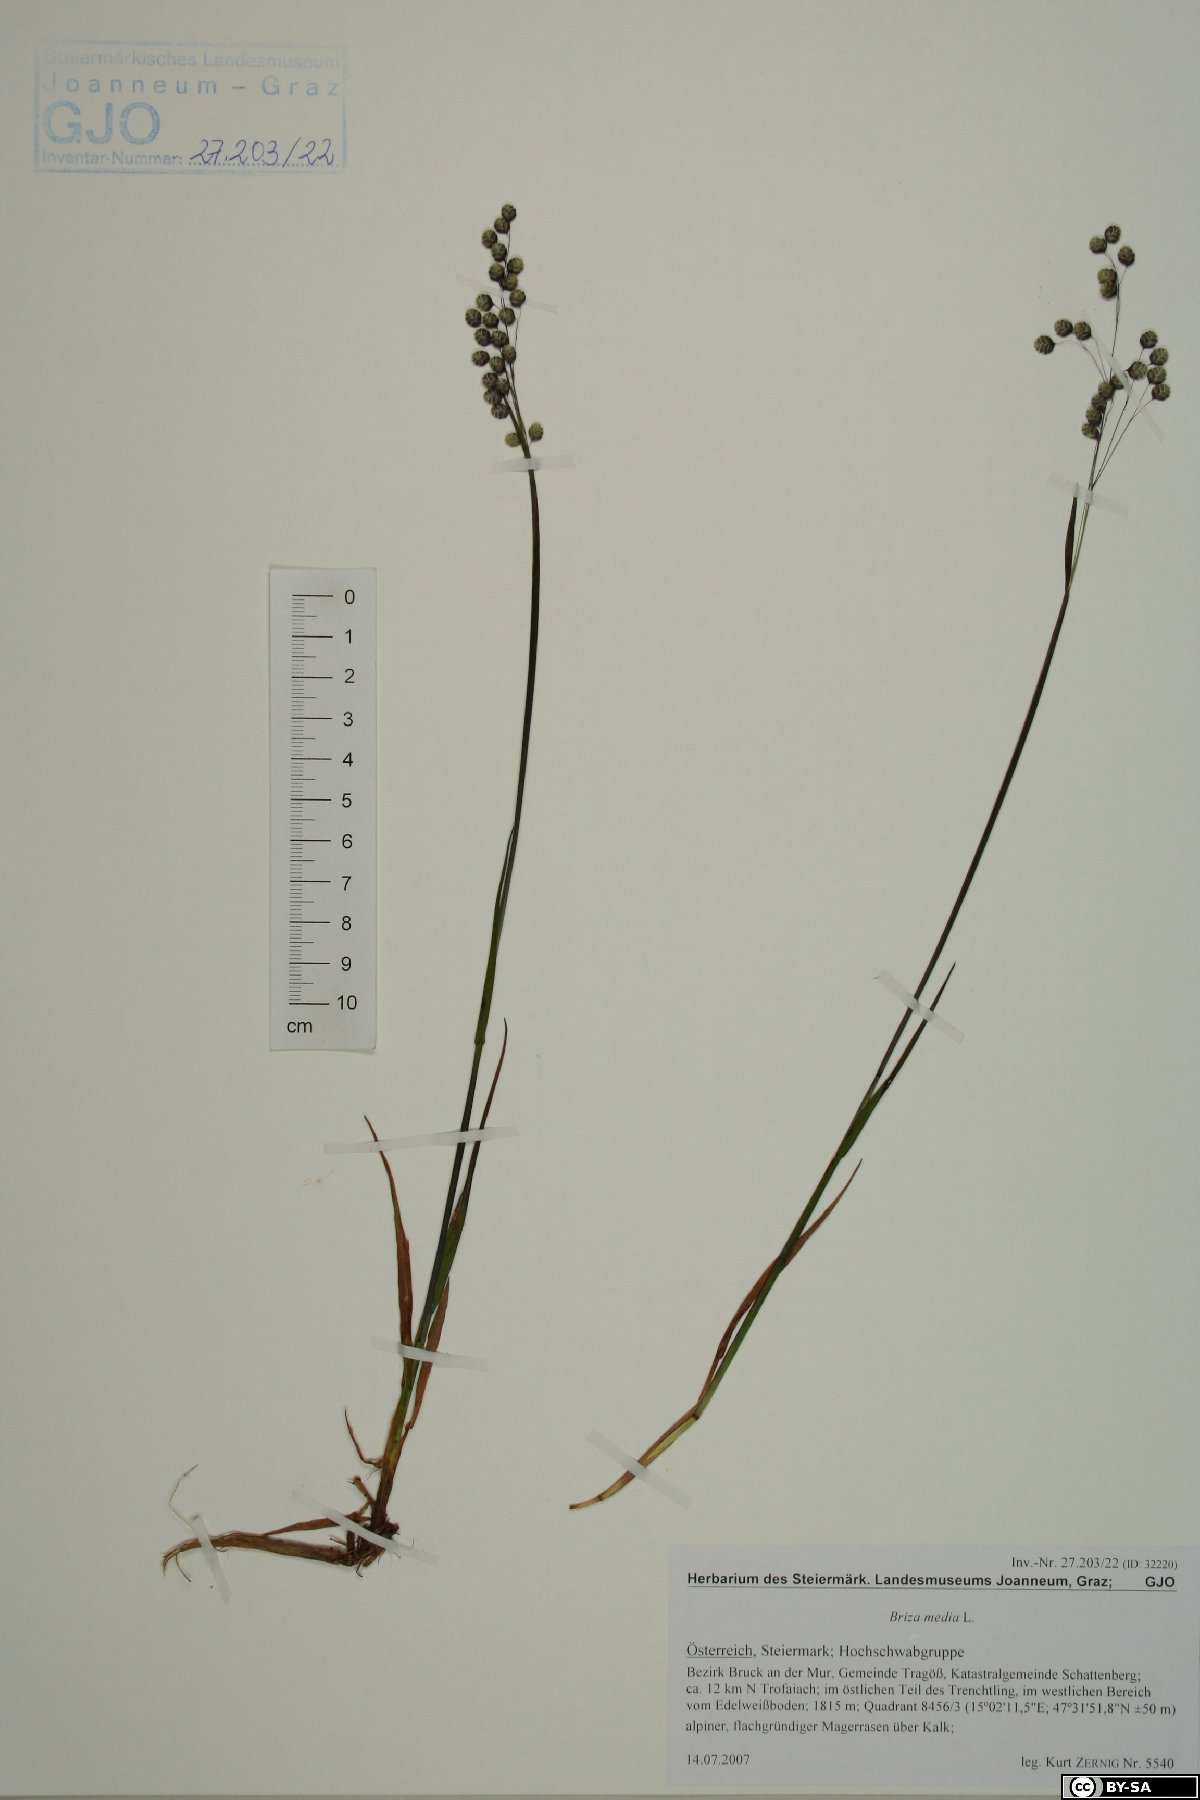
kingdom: Plantae
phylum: Tracheophyta
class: Liliopsida
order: Poales
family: Poaceae
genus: Briza
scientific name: Briza media
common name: Quaking grass
